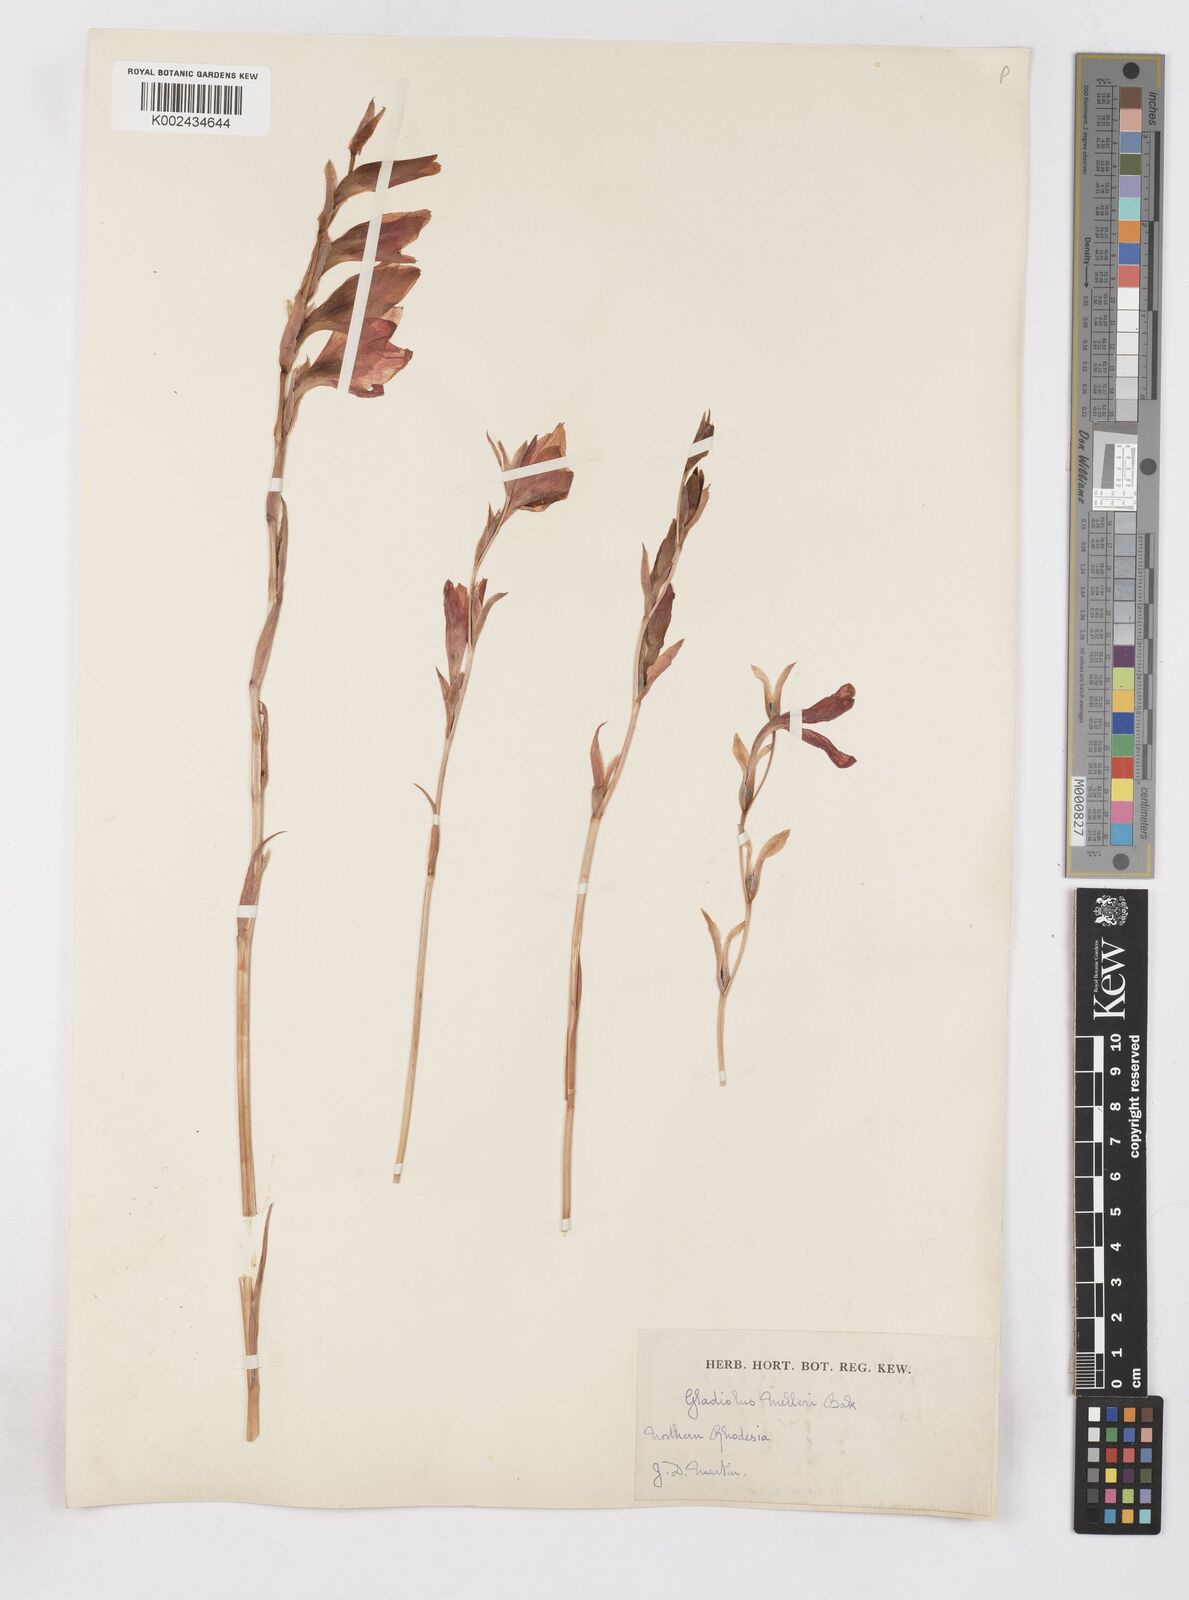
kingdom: Plantae
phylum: Tracheophyta
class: Liliopsida
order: Asparagales
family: Iridaceae
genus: Gladiolus
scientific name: Gladiolus melleri
